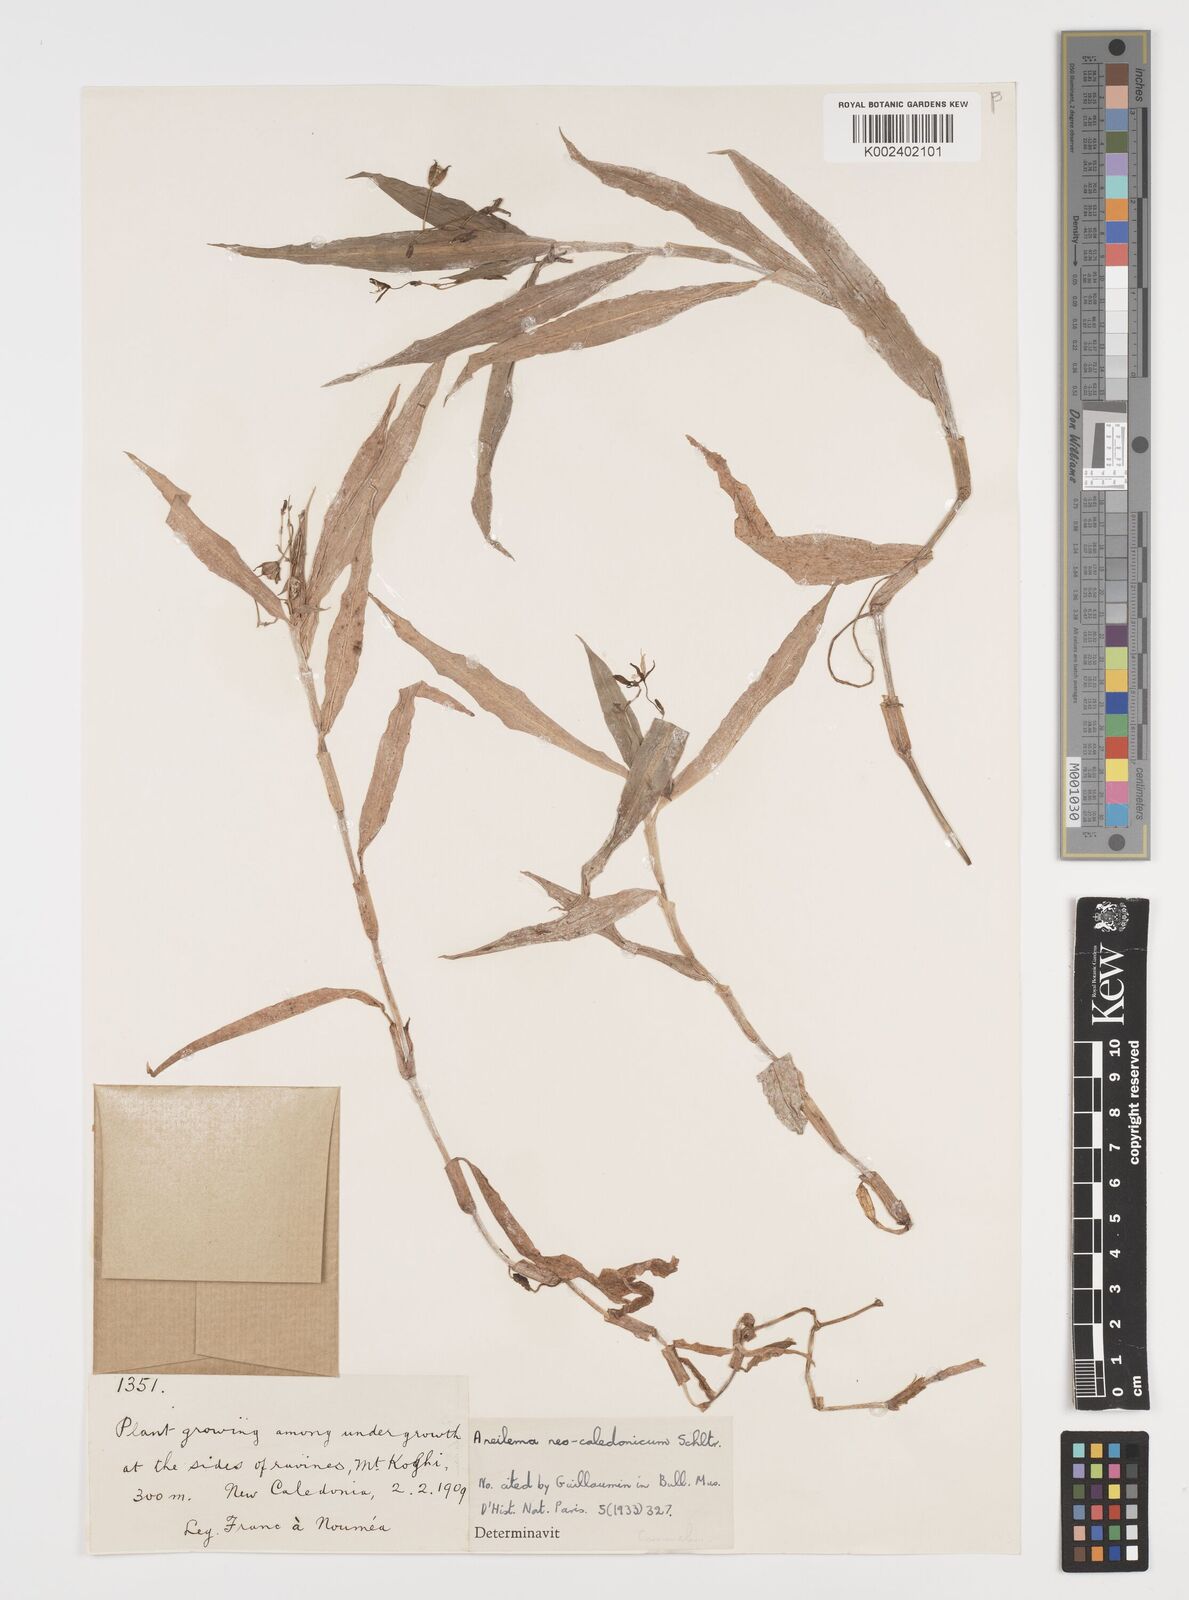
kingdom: Plantae
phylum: Tracheophyta
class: Liliopsida
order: Commelinales
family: Commelinaceae
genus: Aneilema
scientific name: Aneilema neocaledonicum
